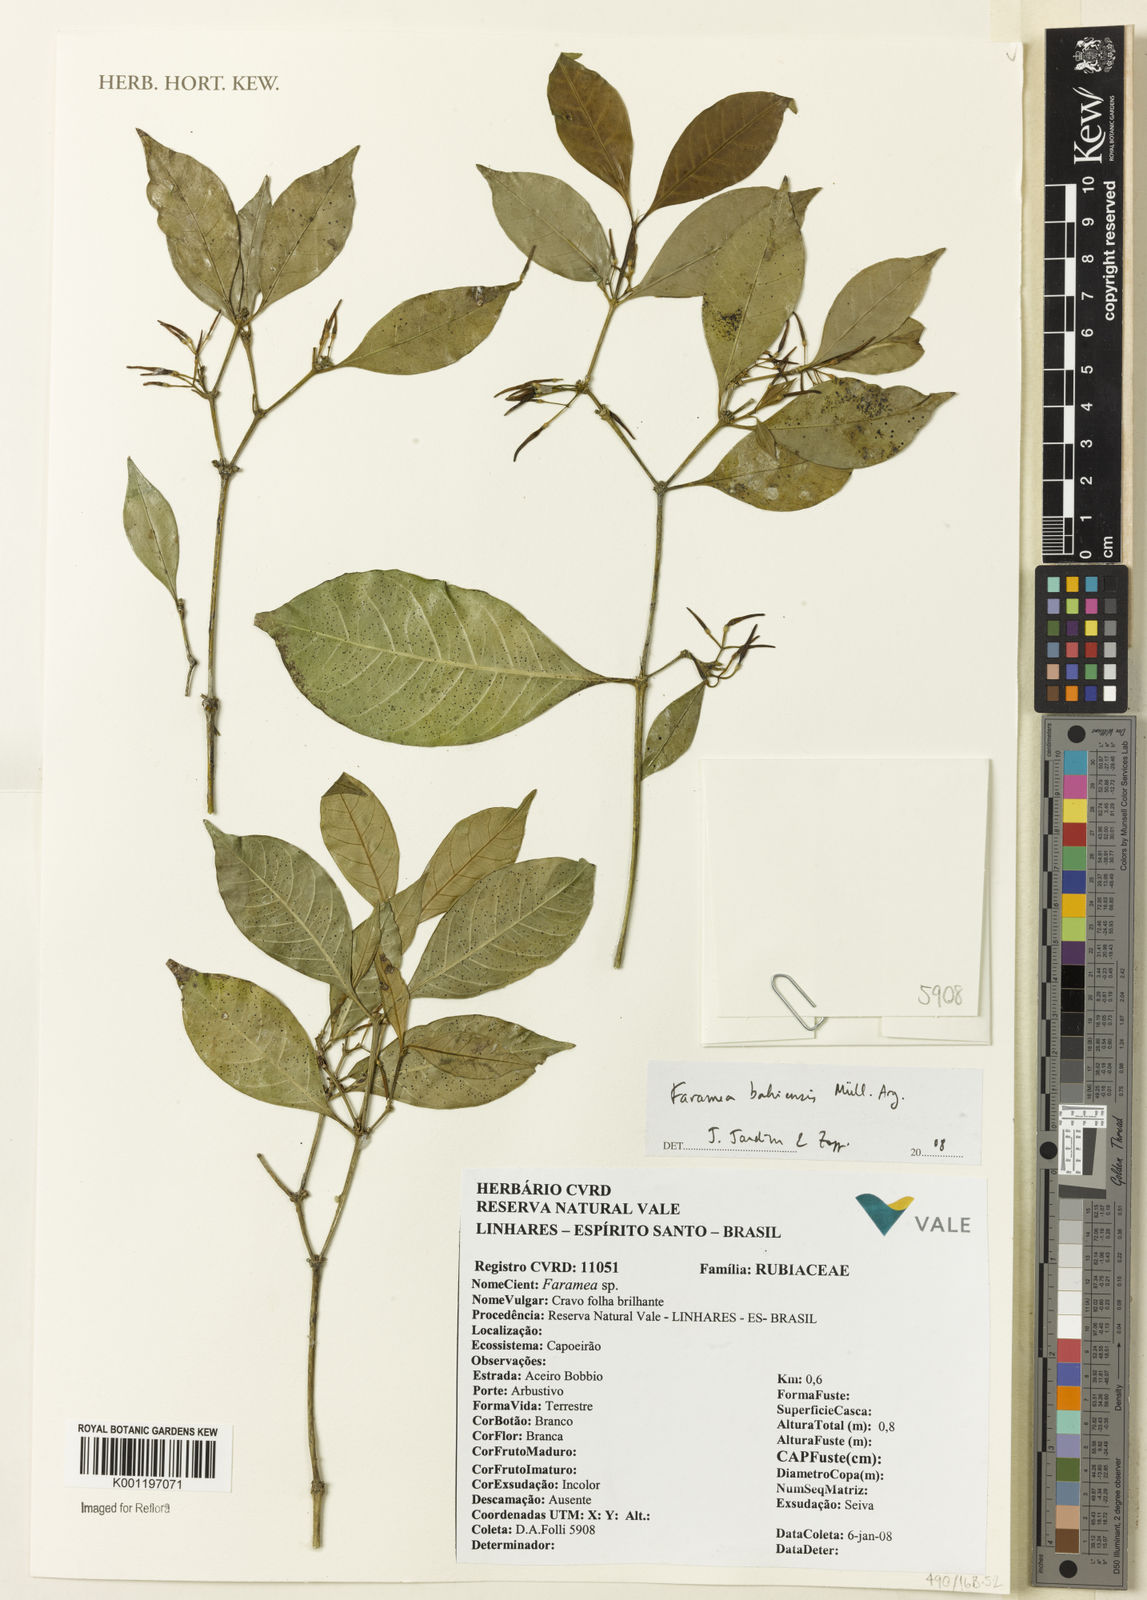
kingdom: Plantae
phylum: Tracheophyta
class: Magnoliopsida
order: Gentianales
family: Rubiaceae
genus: Faramea
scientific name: Faramea
